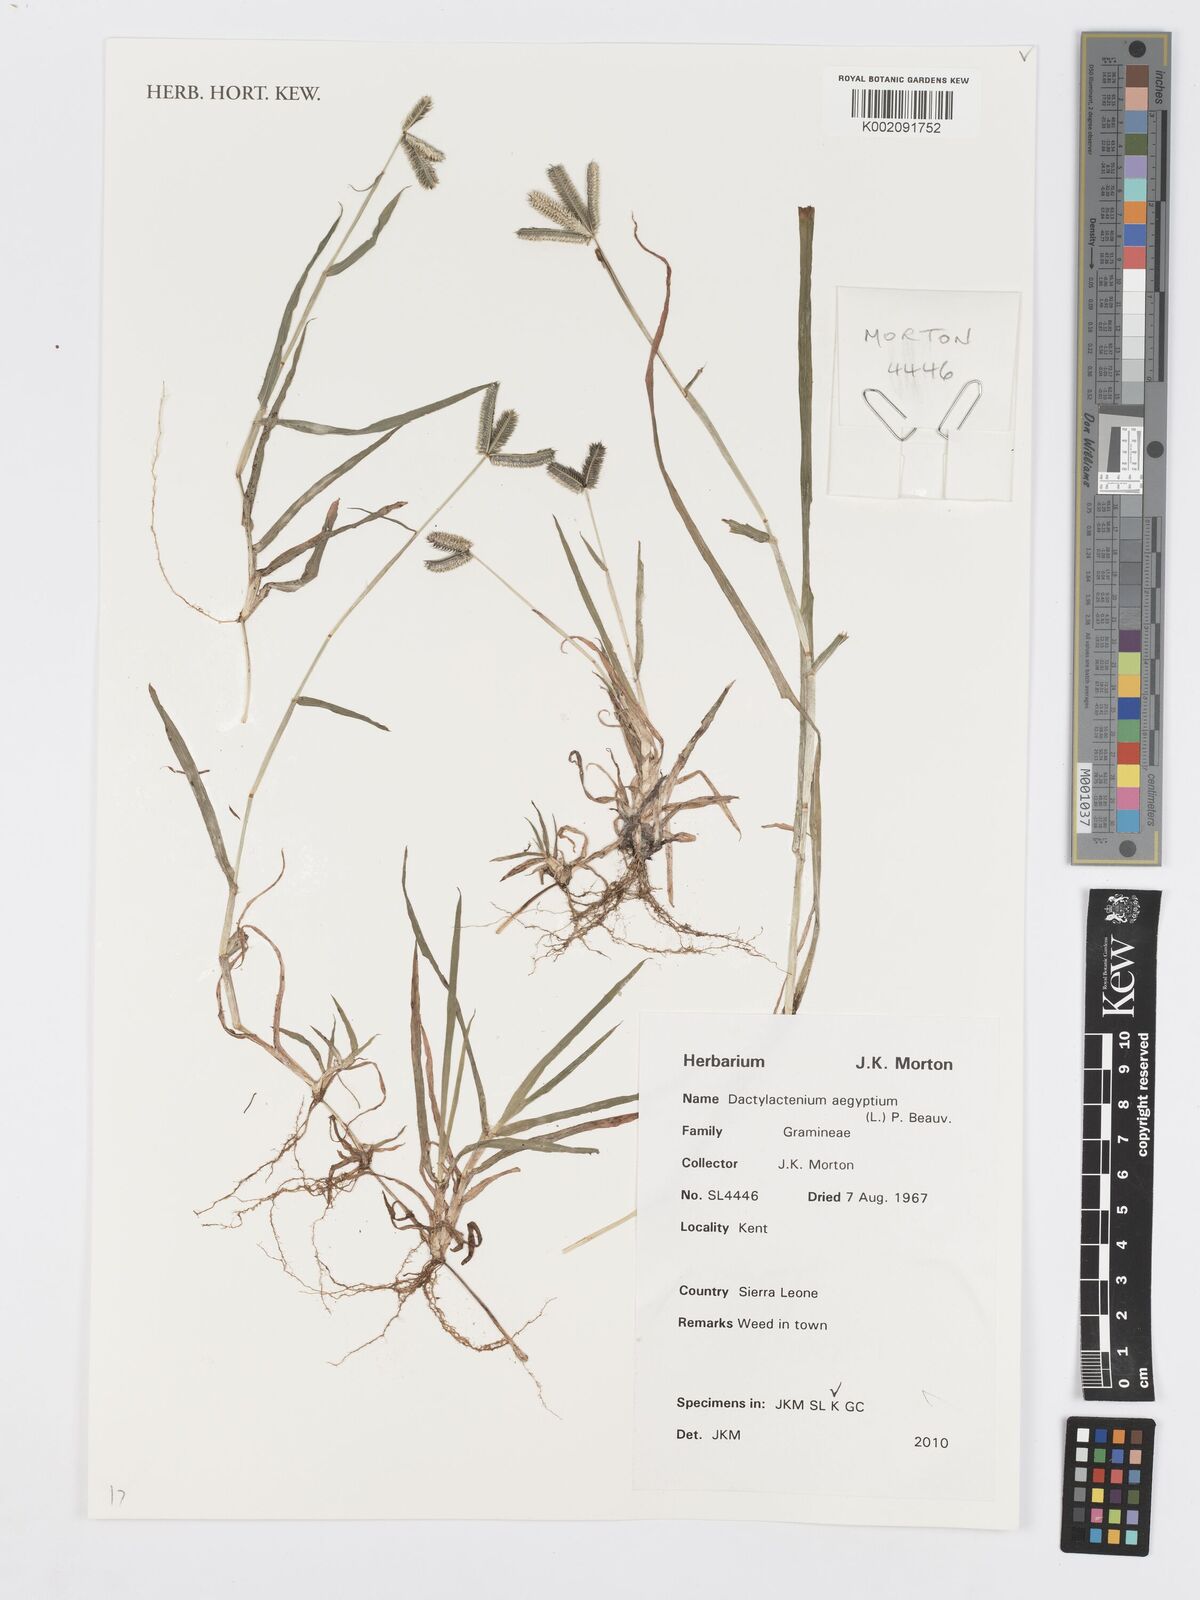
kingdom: Plantae
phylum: Tracheophyta
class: Liliopsida
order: Poales
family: Poaceae
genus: Dactyloctenium
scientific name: Dactyloctenium aegyptium
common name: Egyptian grass
